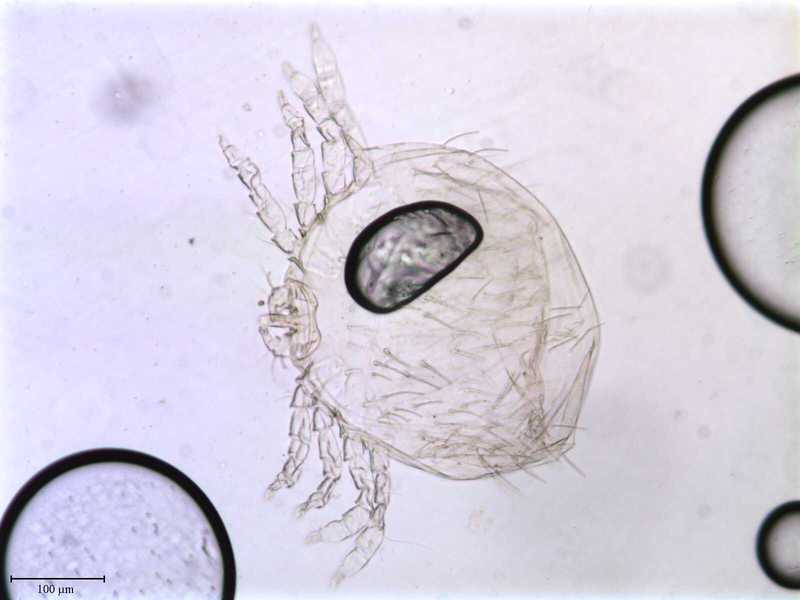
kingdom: Animalia
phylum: Arthropoda
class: Arachnida
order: Trombidiformes
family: Pterygosomatidae
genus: Geckobia
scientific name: Geckobia
